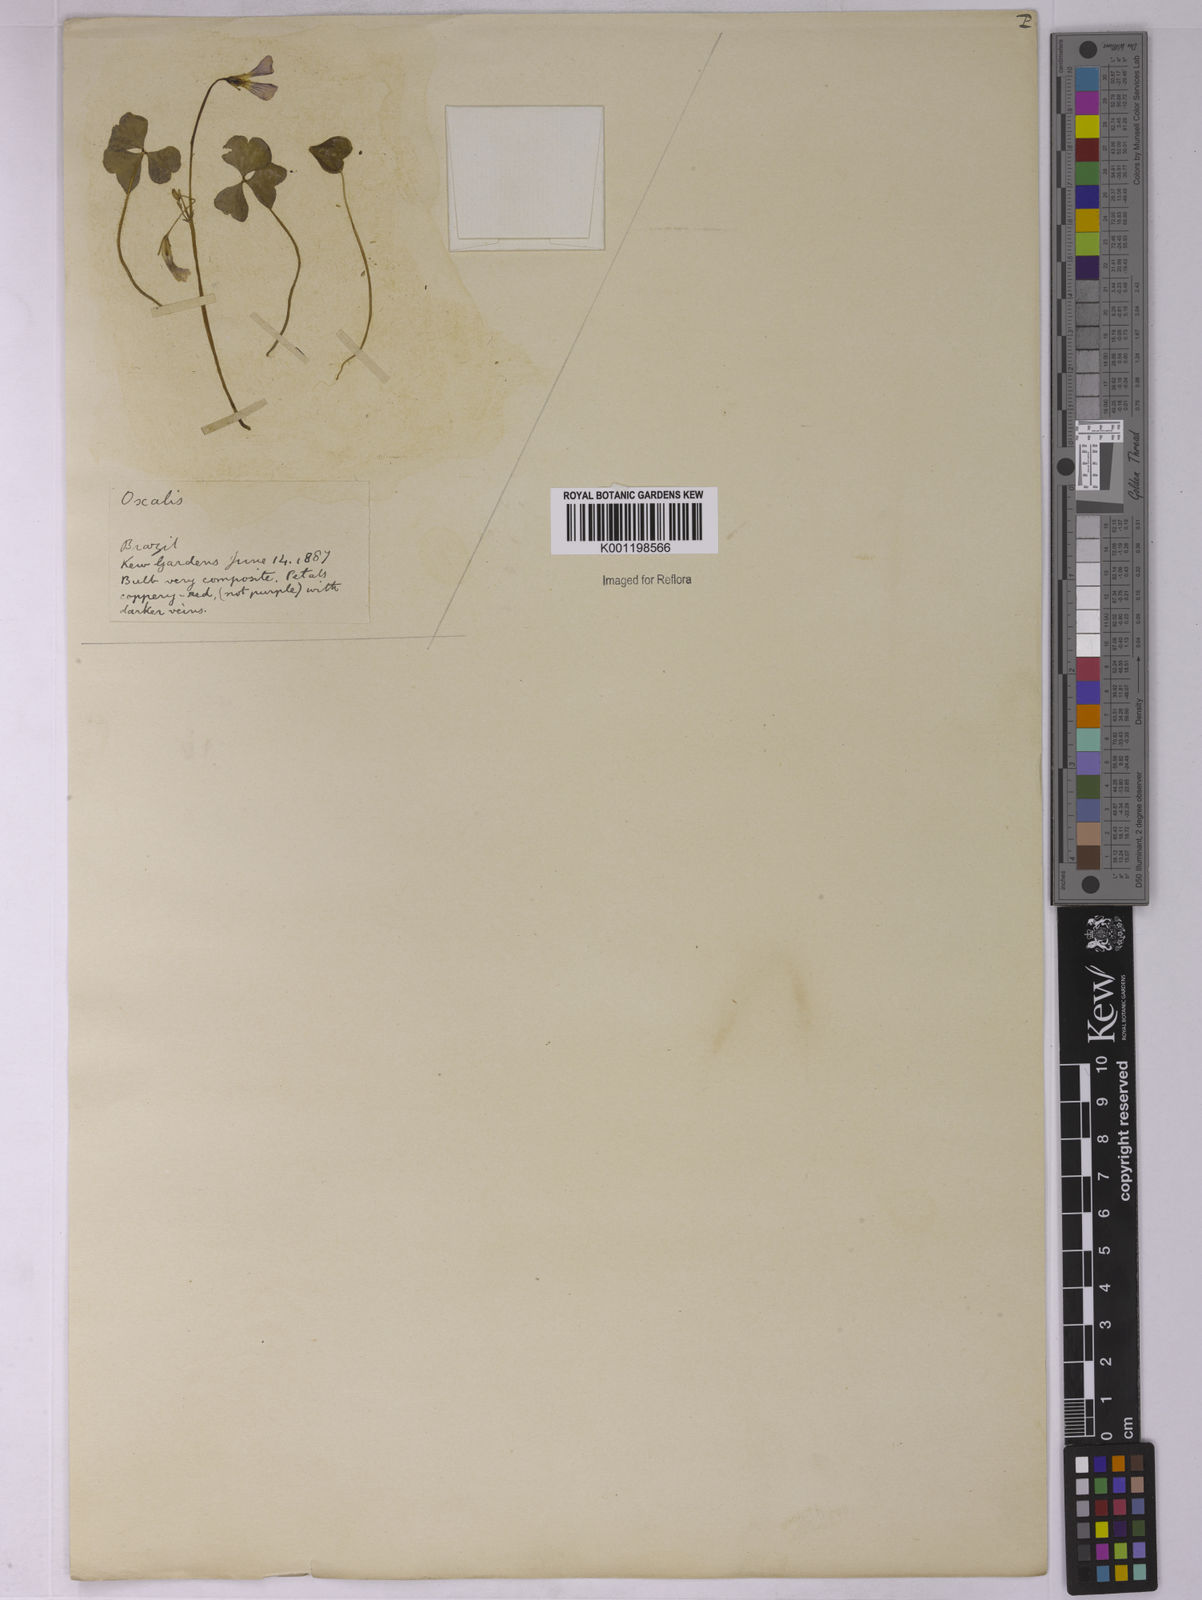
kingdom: Plantae
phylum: Tracheophyta
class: Magnoliopsida
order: Oxalidales
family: Oxalidaceae
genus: Oxalis
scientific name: Oxalis
